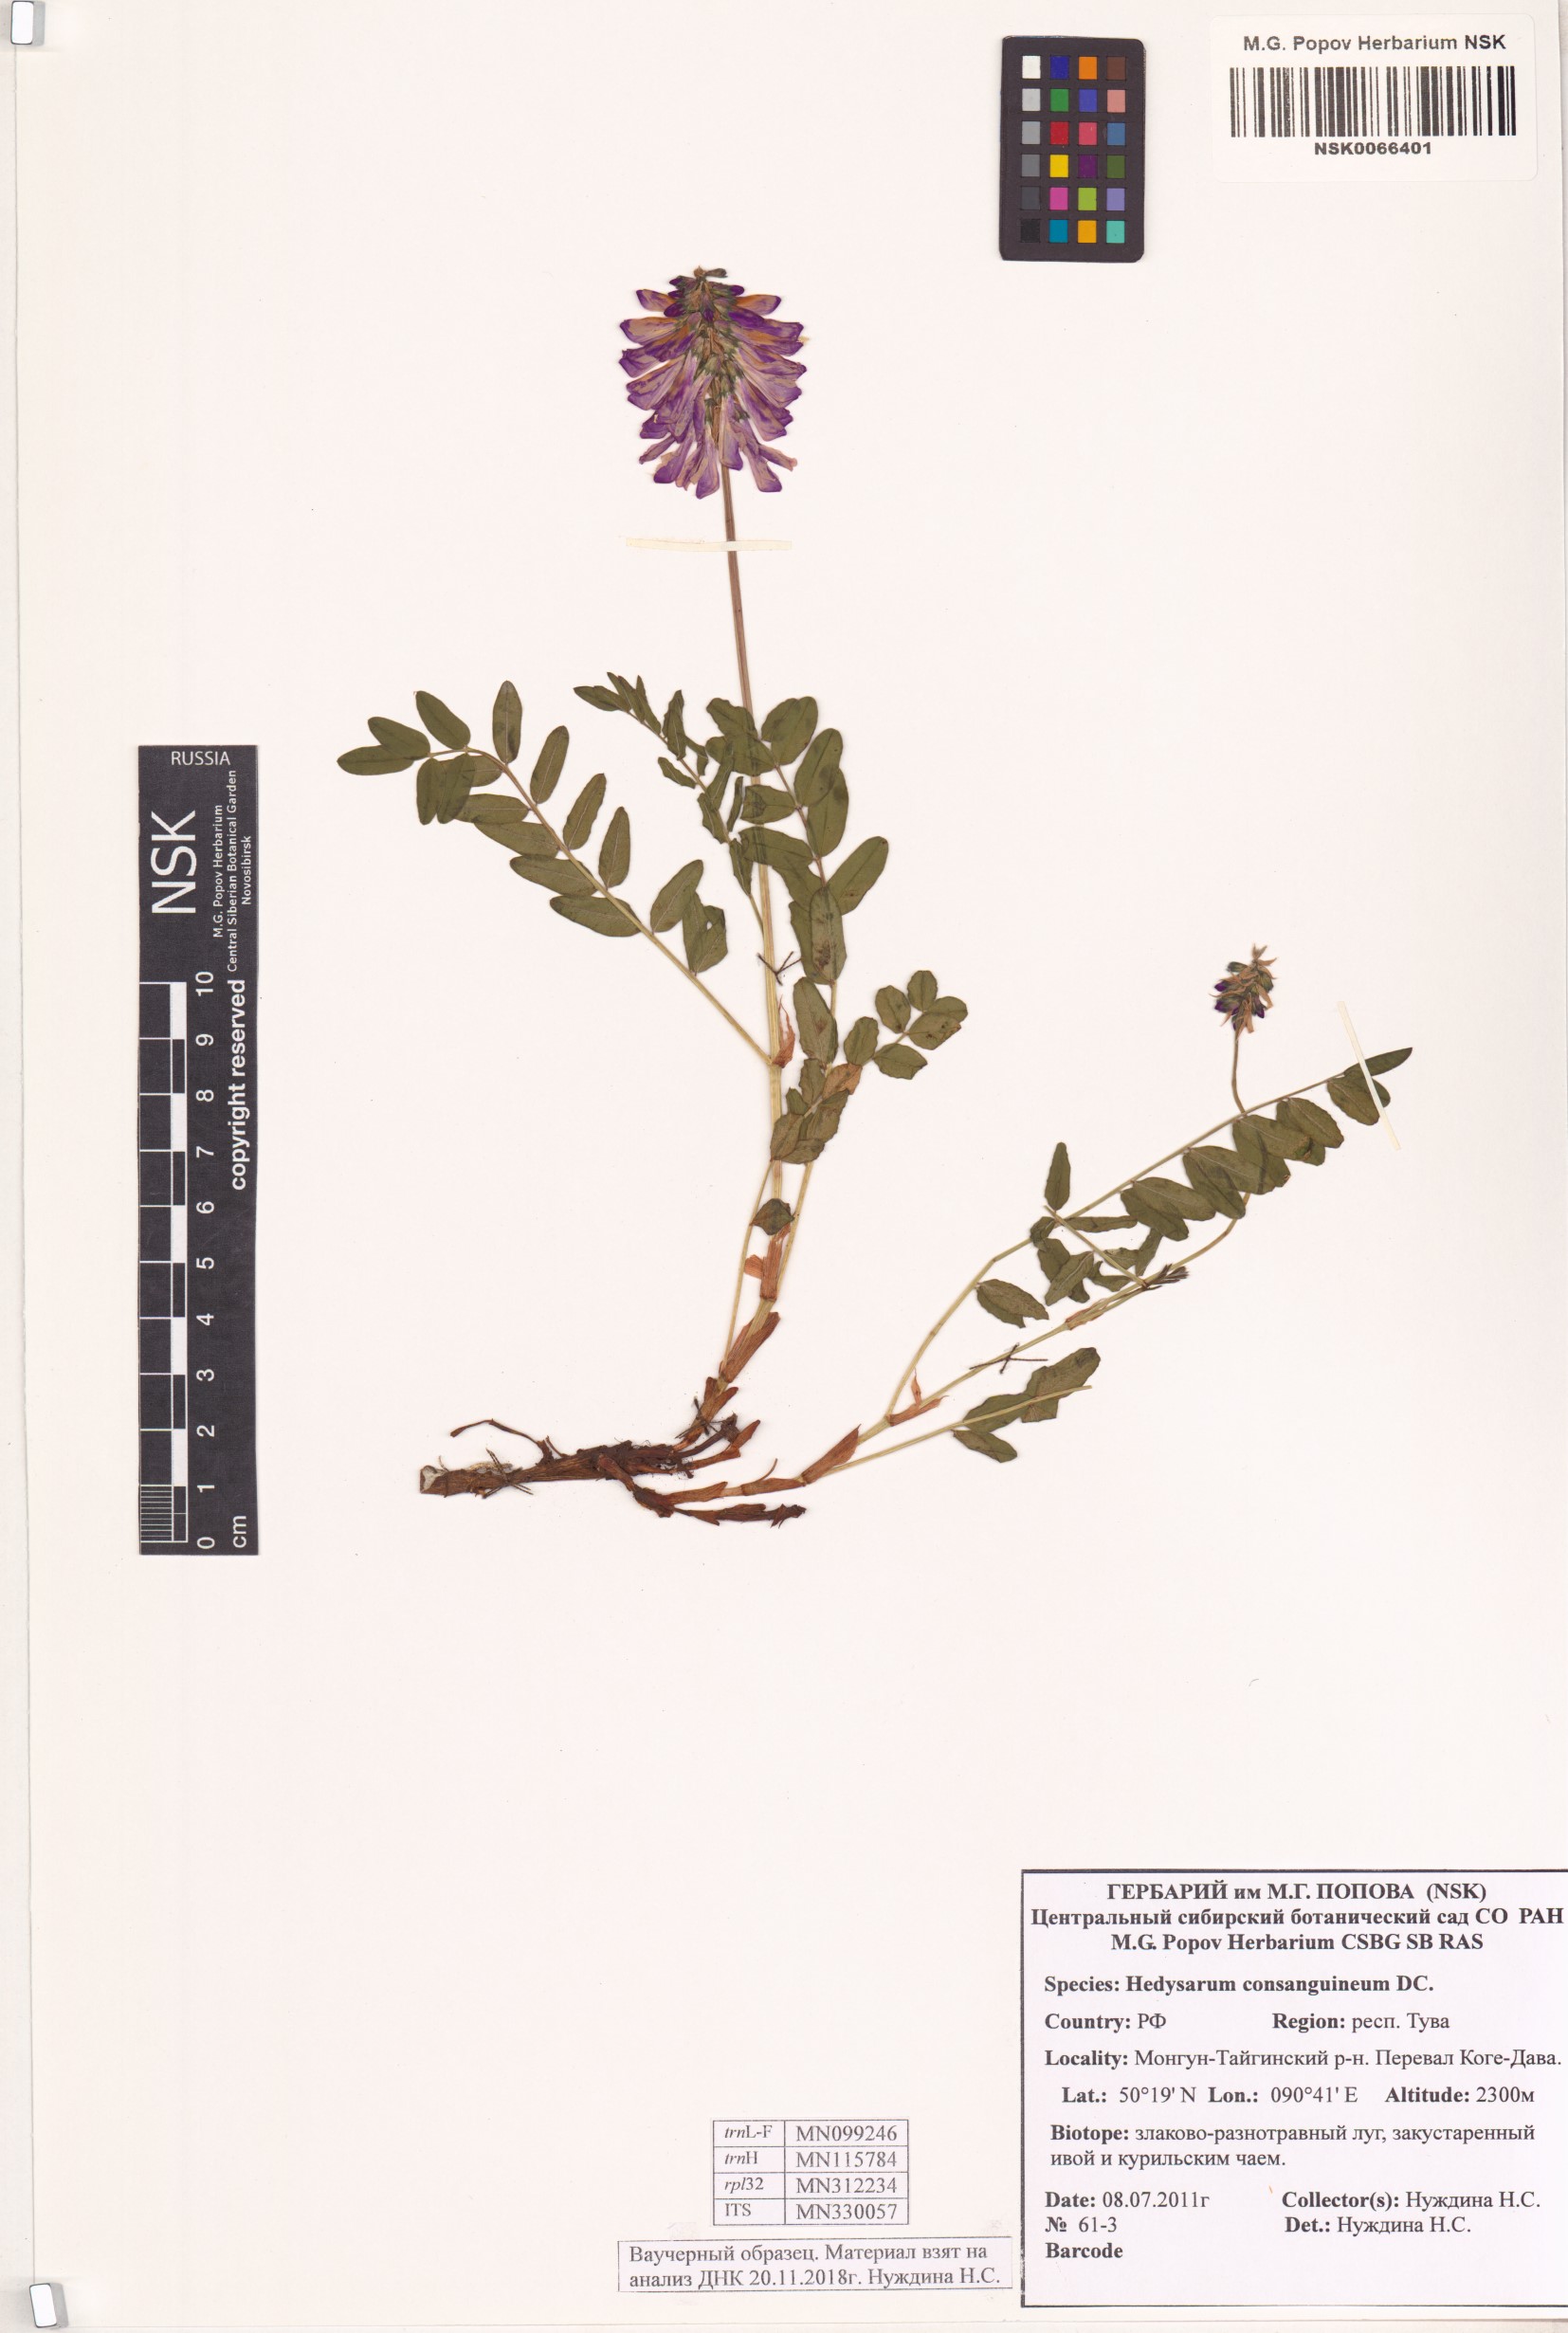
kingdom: Plantae
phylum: Tracheophyta
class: Magnoliopsida
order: Fabales
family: Fabaceae
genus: Hedysarum
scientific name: Hedysarum consanguineum
